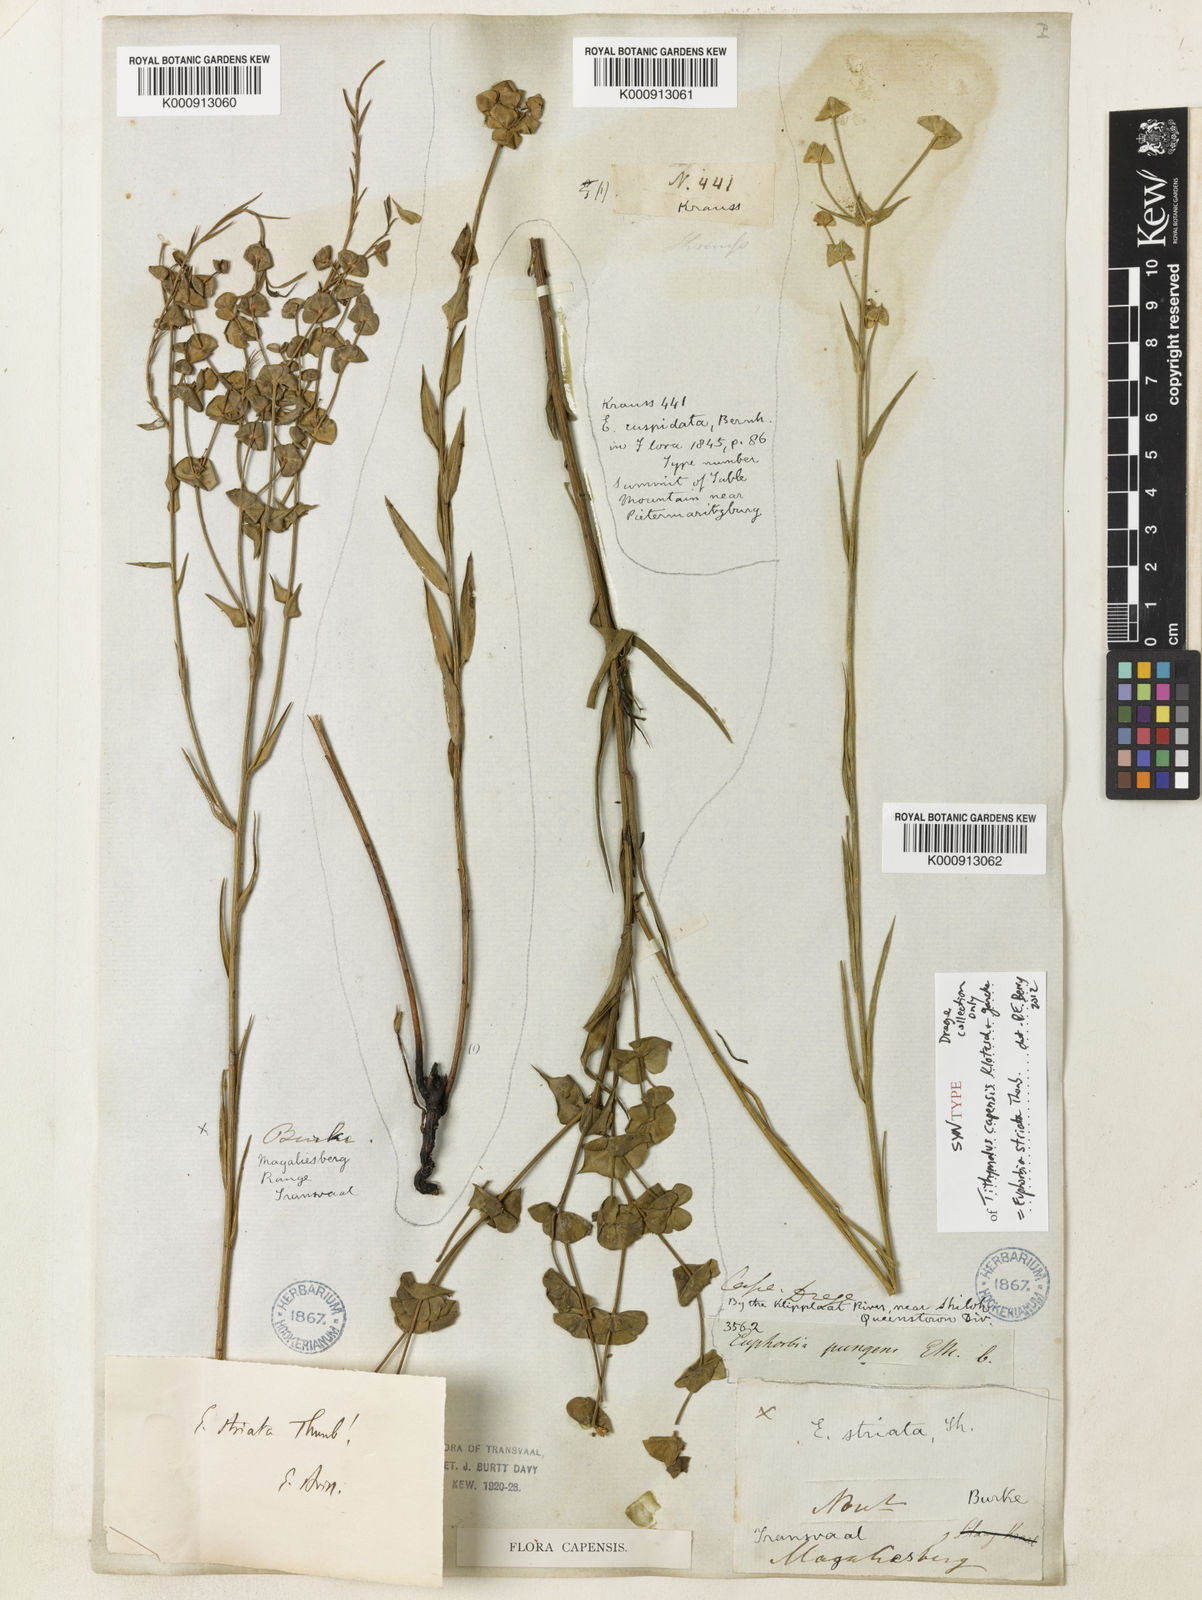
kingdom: Plantae
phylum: Tracheophyta
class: Magnoliopsida
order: Malpighiales
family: Euphorbiaceae
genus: Euphorbia
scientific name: Euphorbia striata
